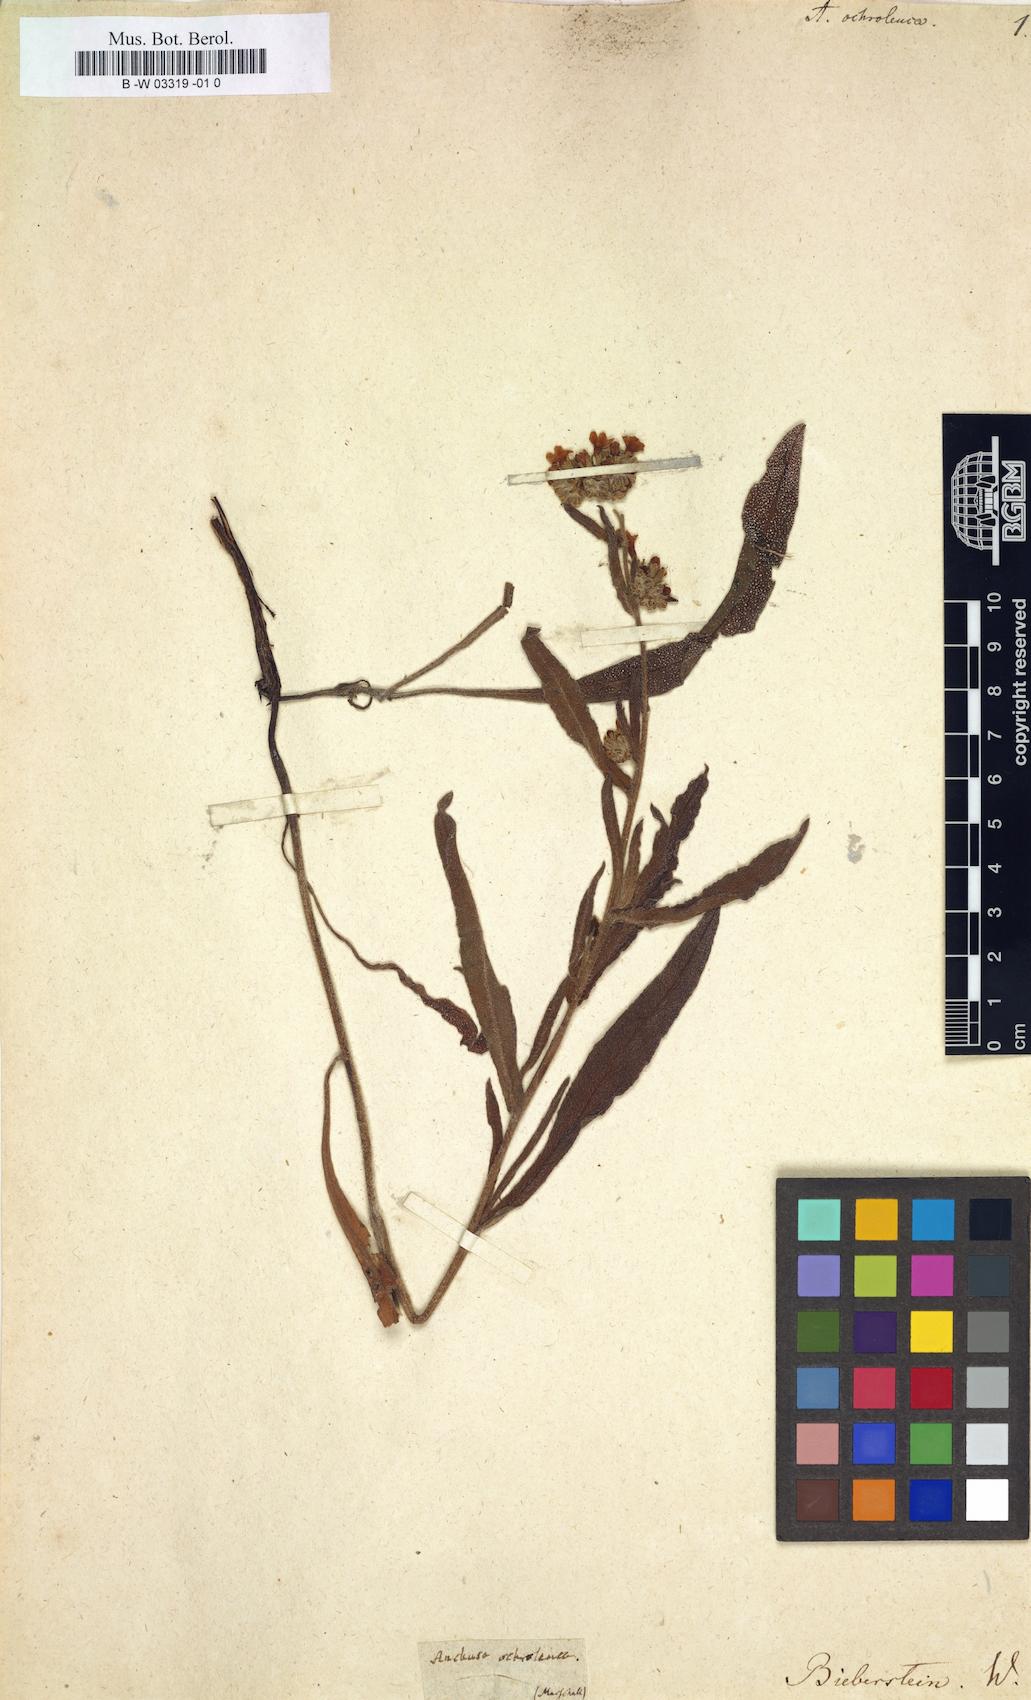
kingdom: Plantae
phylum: Tracheophyta
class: Magnoliopsida
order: Boraginales
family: Boraginaceae
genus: Anchusa
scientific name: Anchusa ochroleuca
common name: Yellow alkanet
